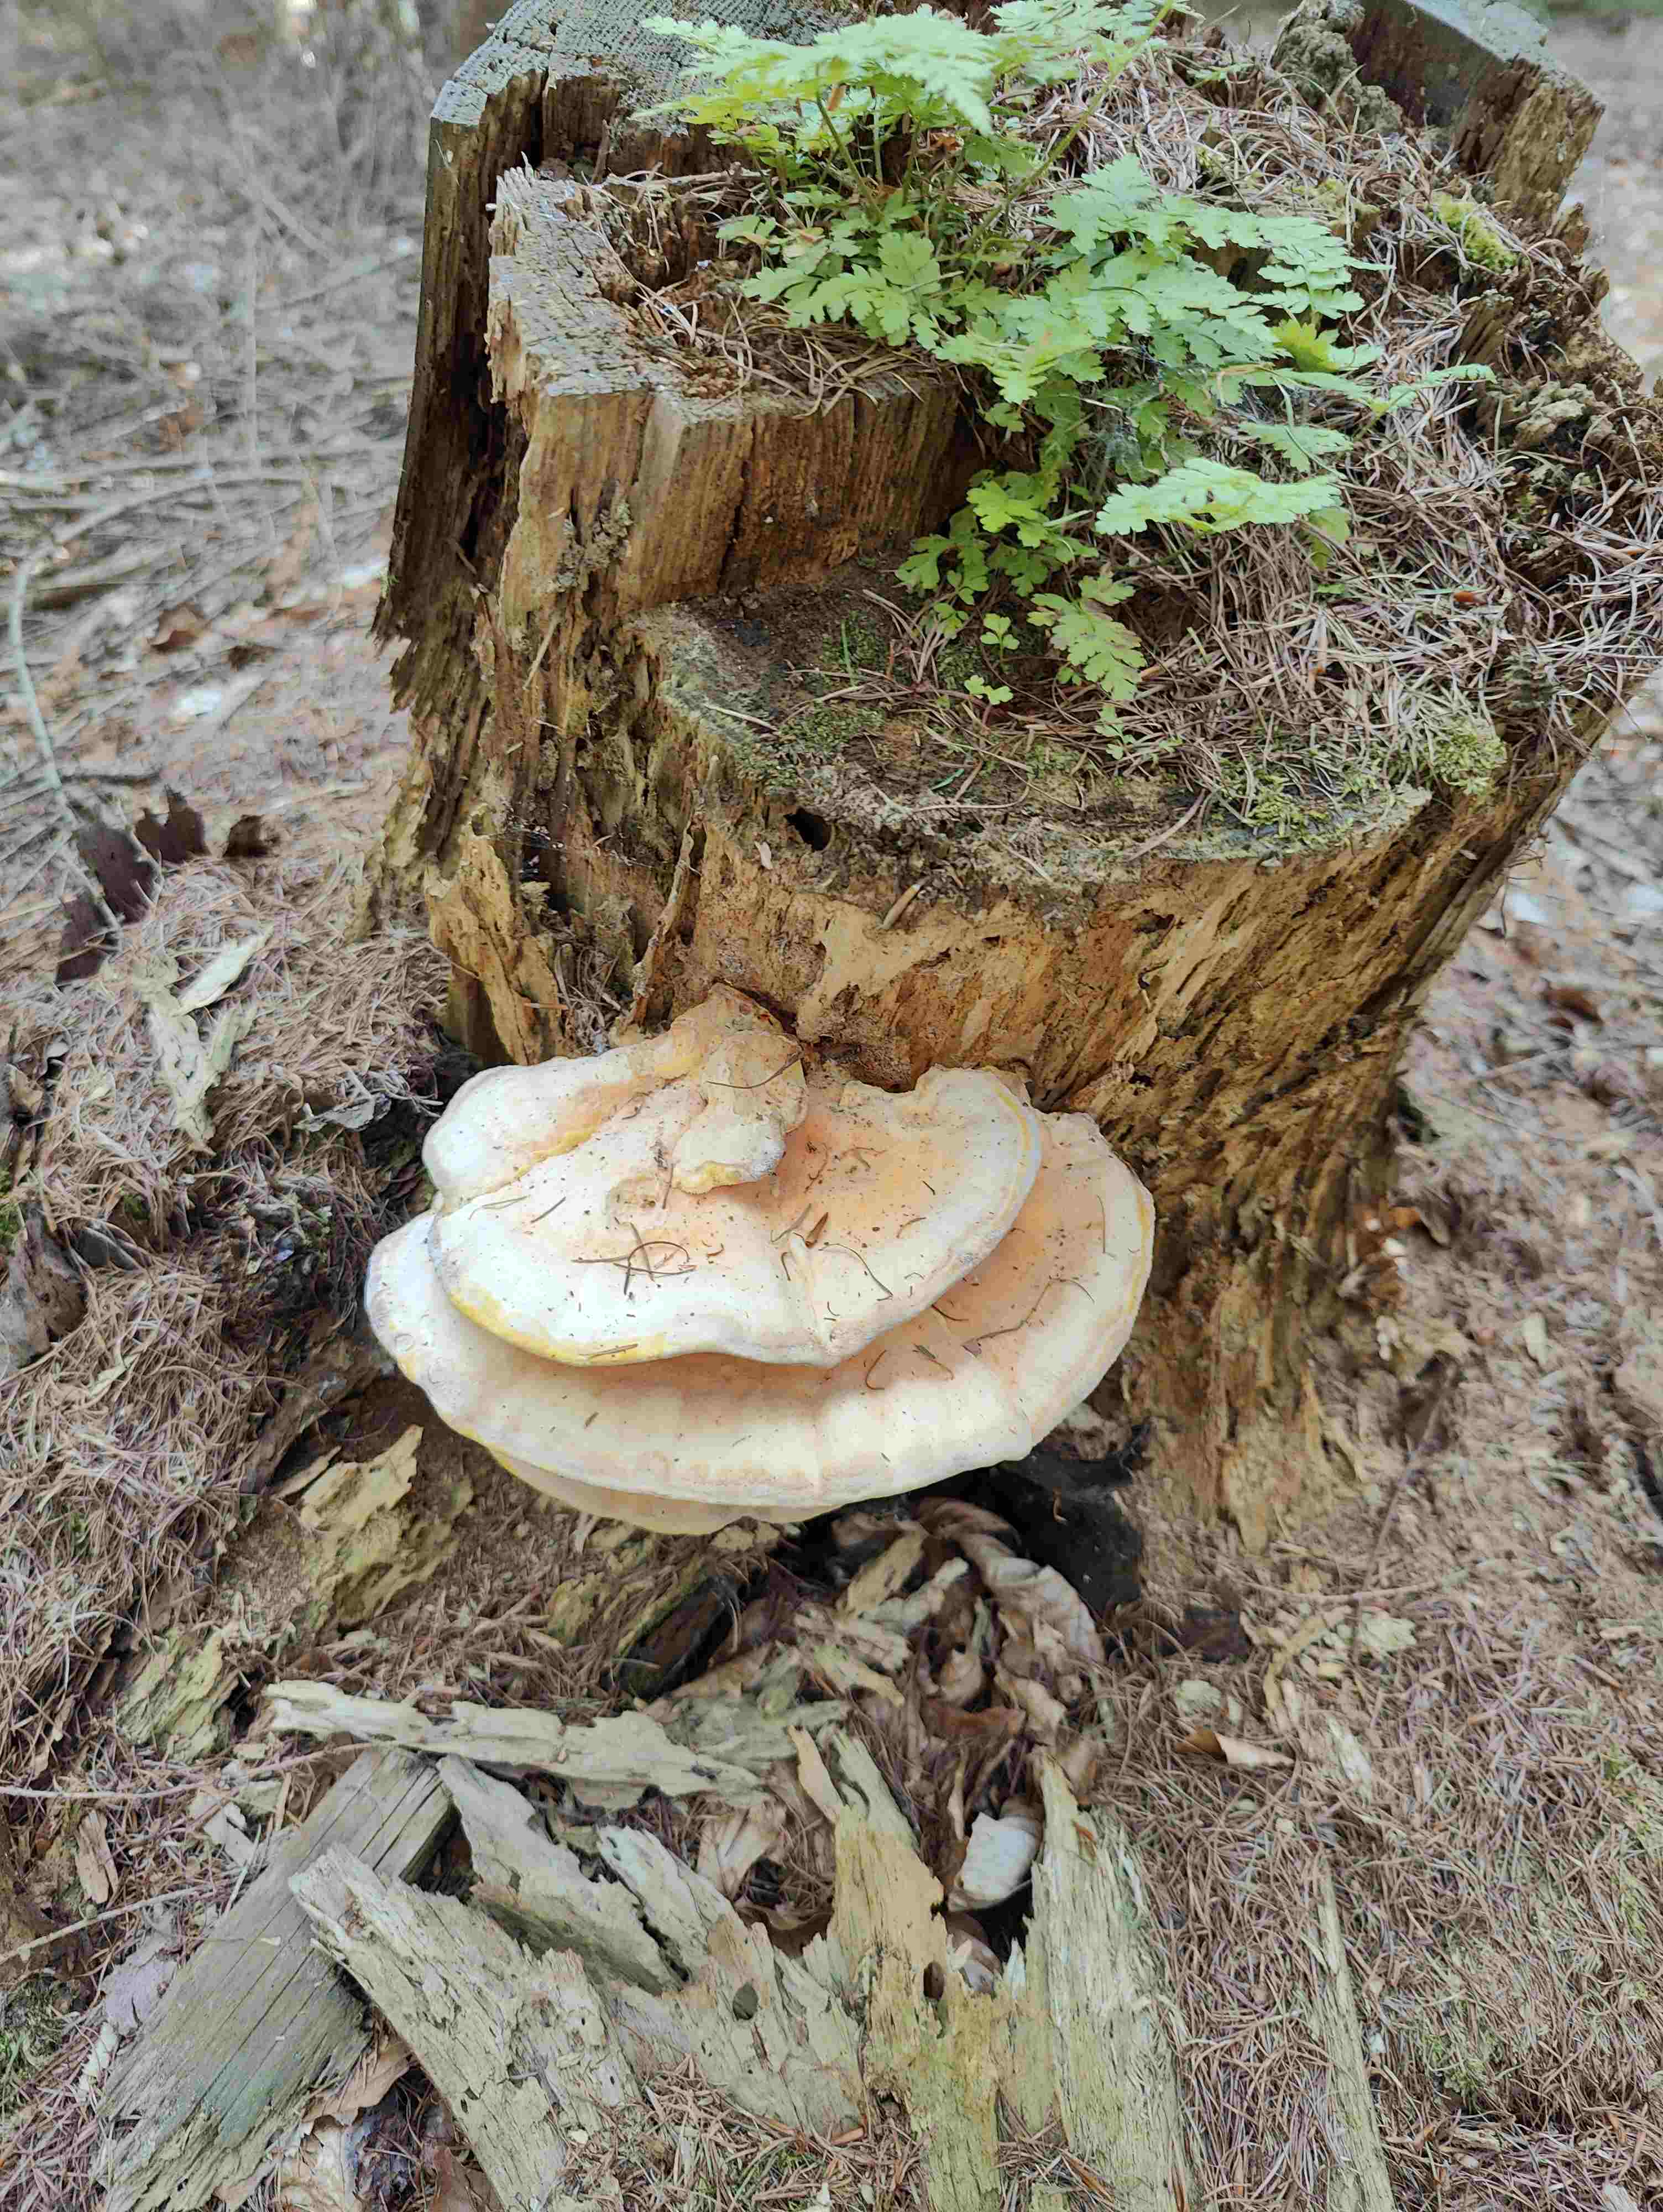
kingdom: Fungi
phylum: Basidiomycota
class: Agaricomycetes
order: Polyporales
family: Laetiporaceae
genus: Laetiporus
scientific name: Laetiporus sulphureus
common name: svovlporesvamp
